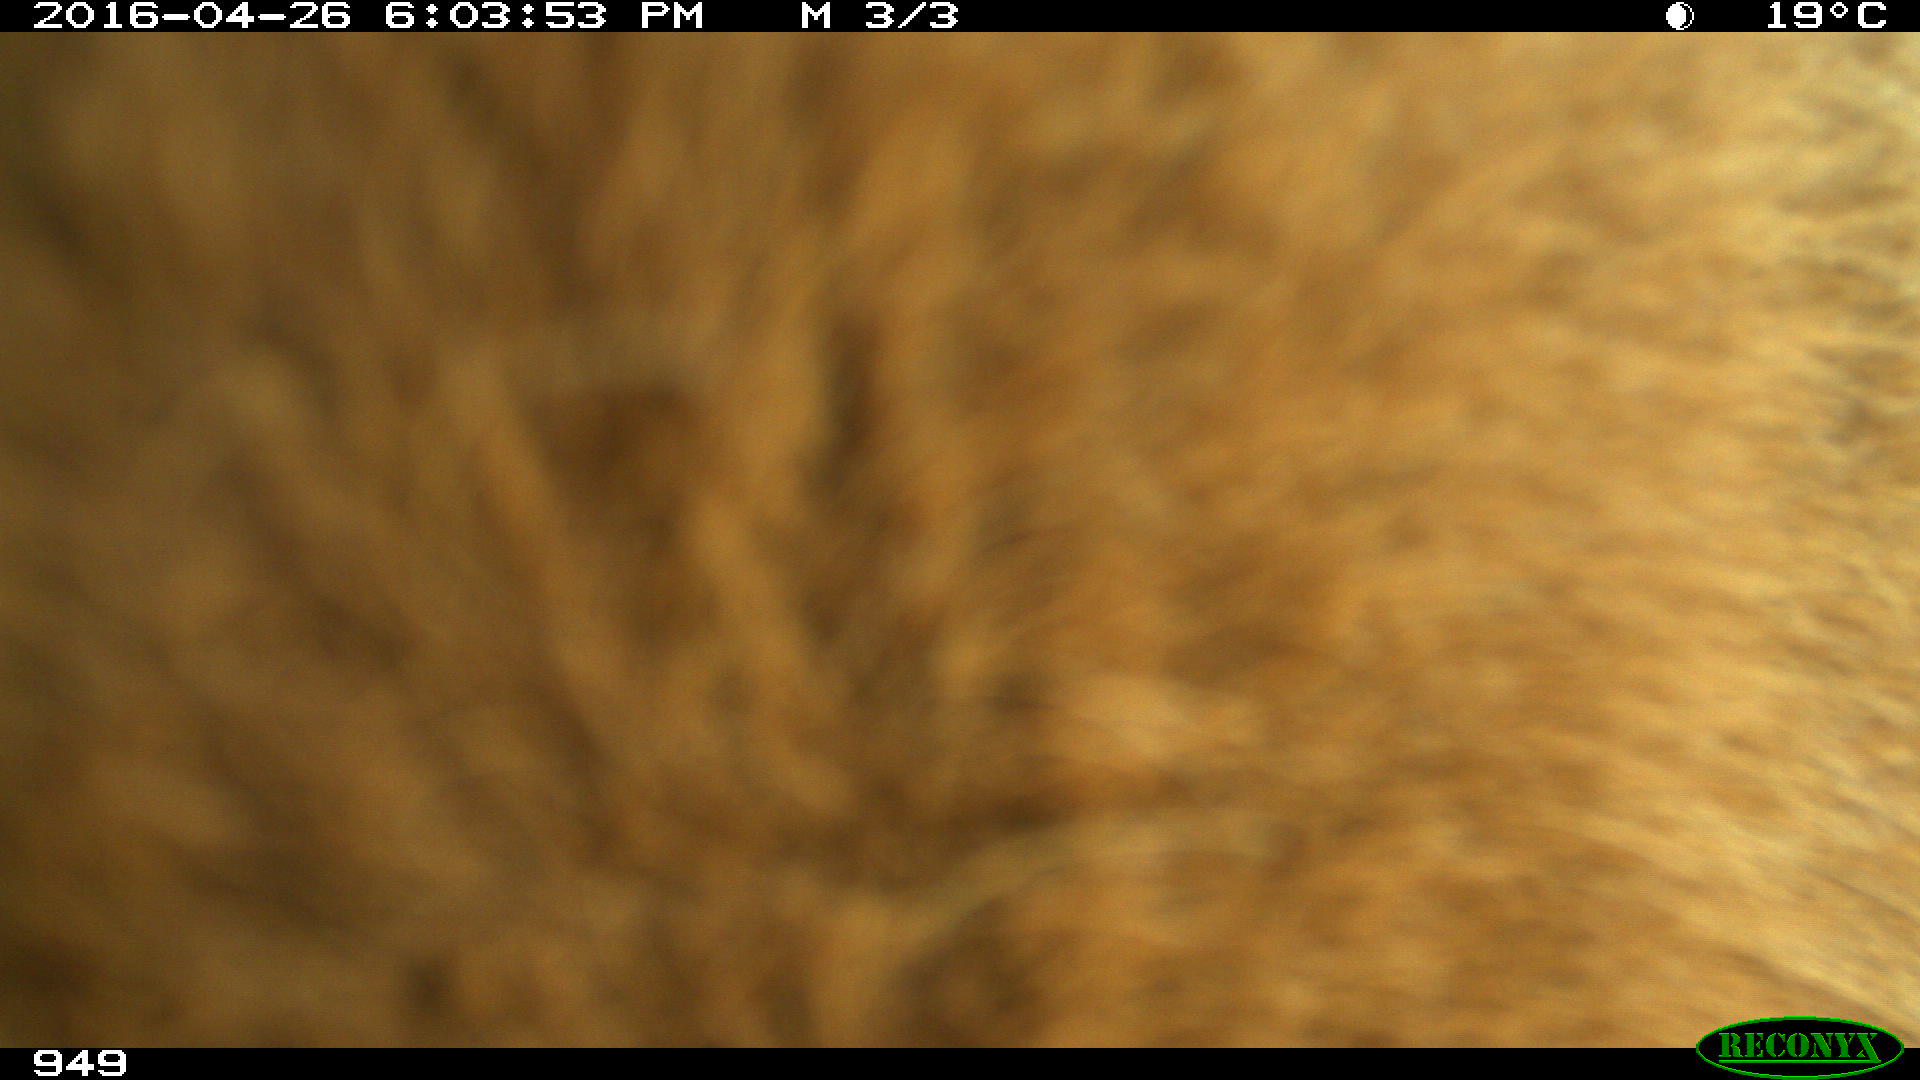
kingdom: Animalia
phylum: Chordata
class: Mammalia
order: Artiodactyla
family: Bovidae
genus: Bos
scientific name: Bos taurus
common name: Domesticated cattle
